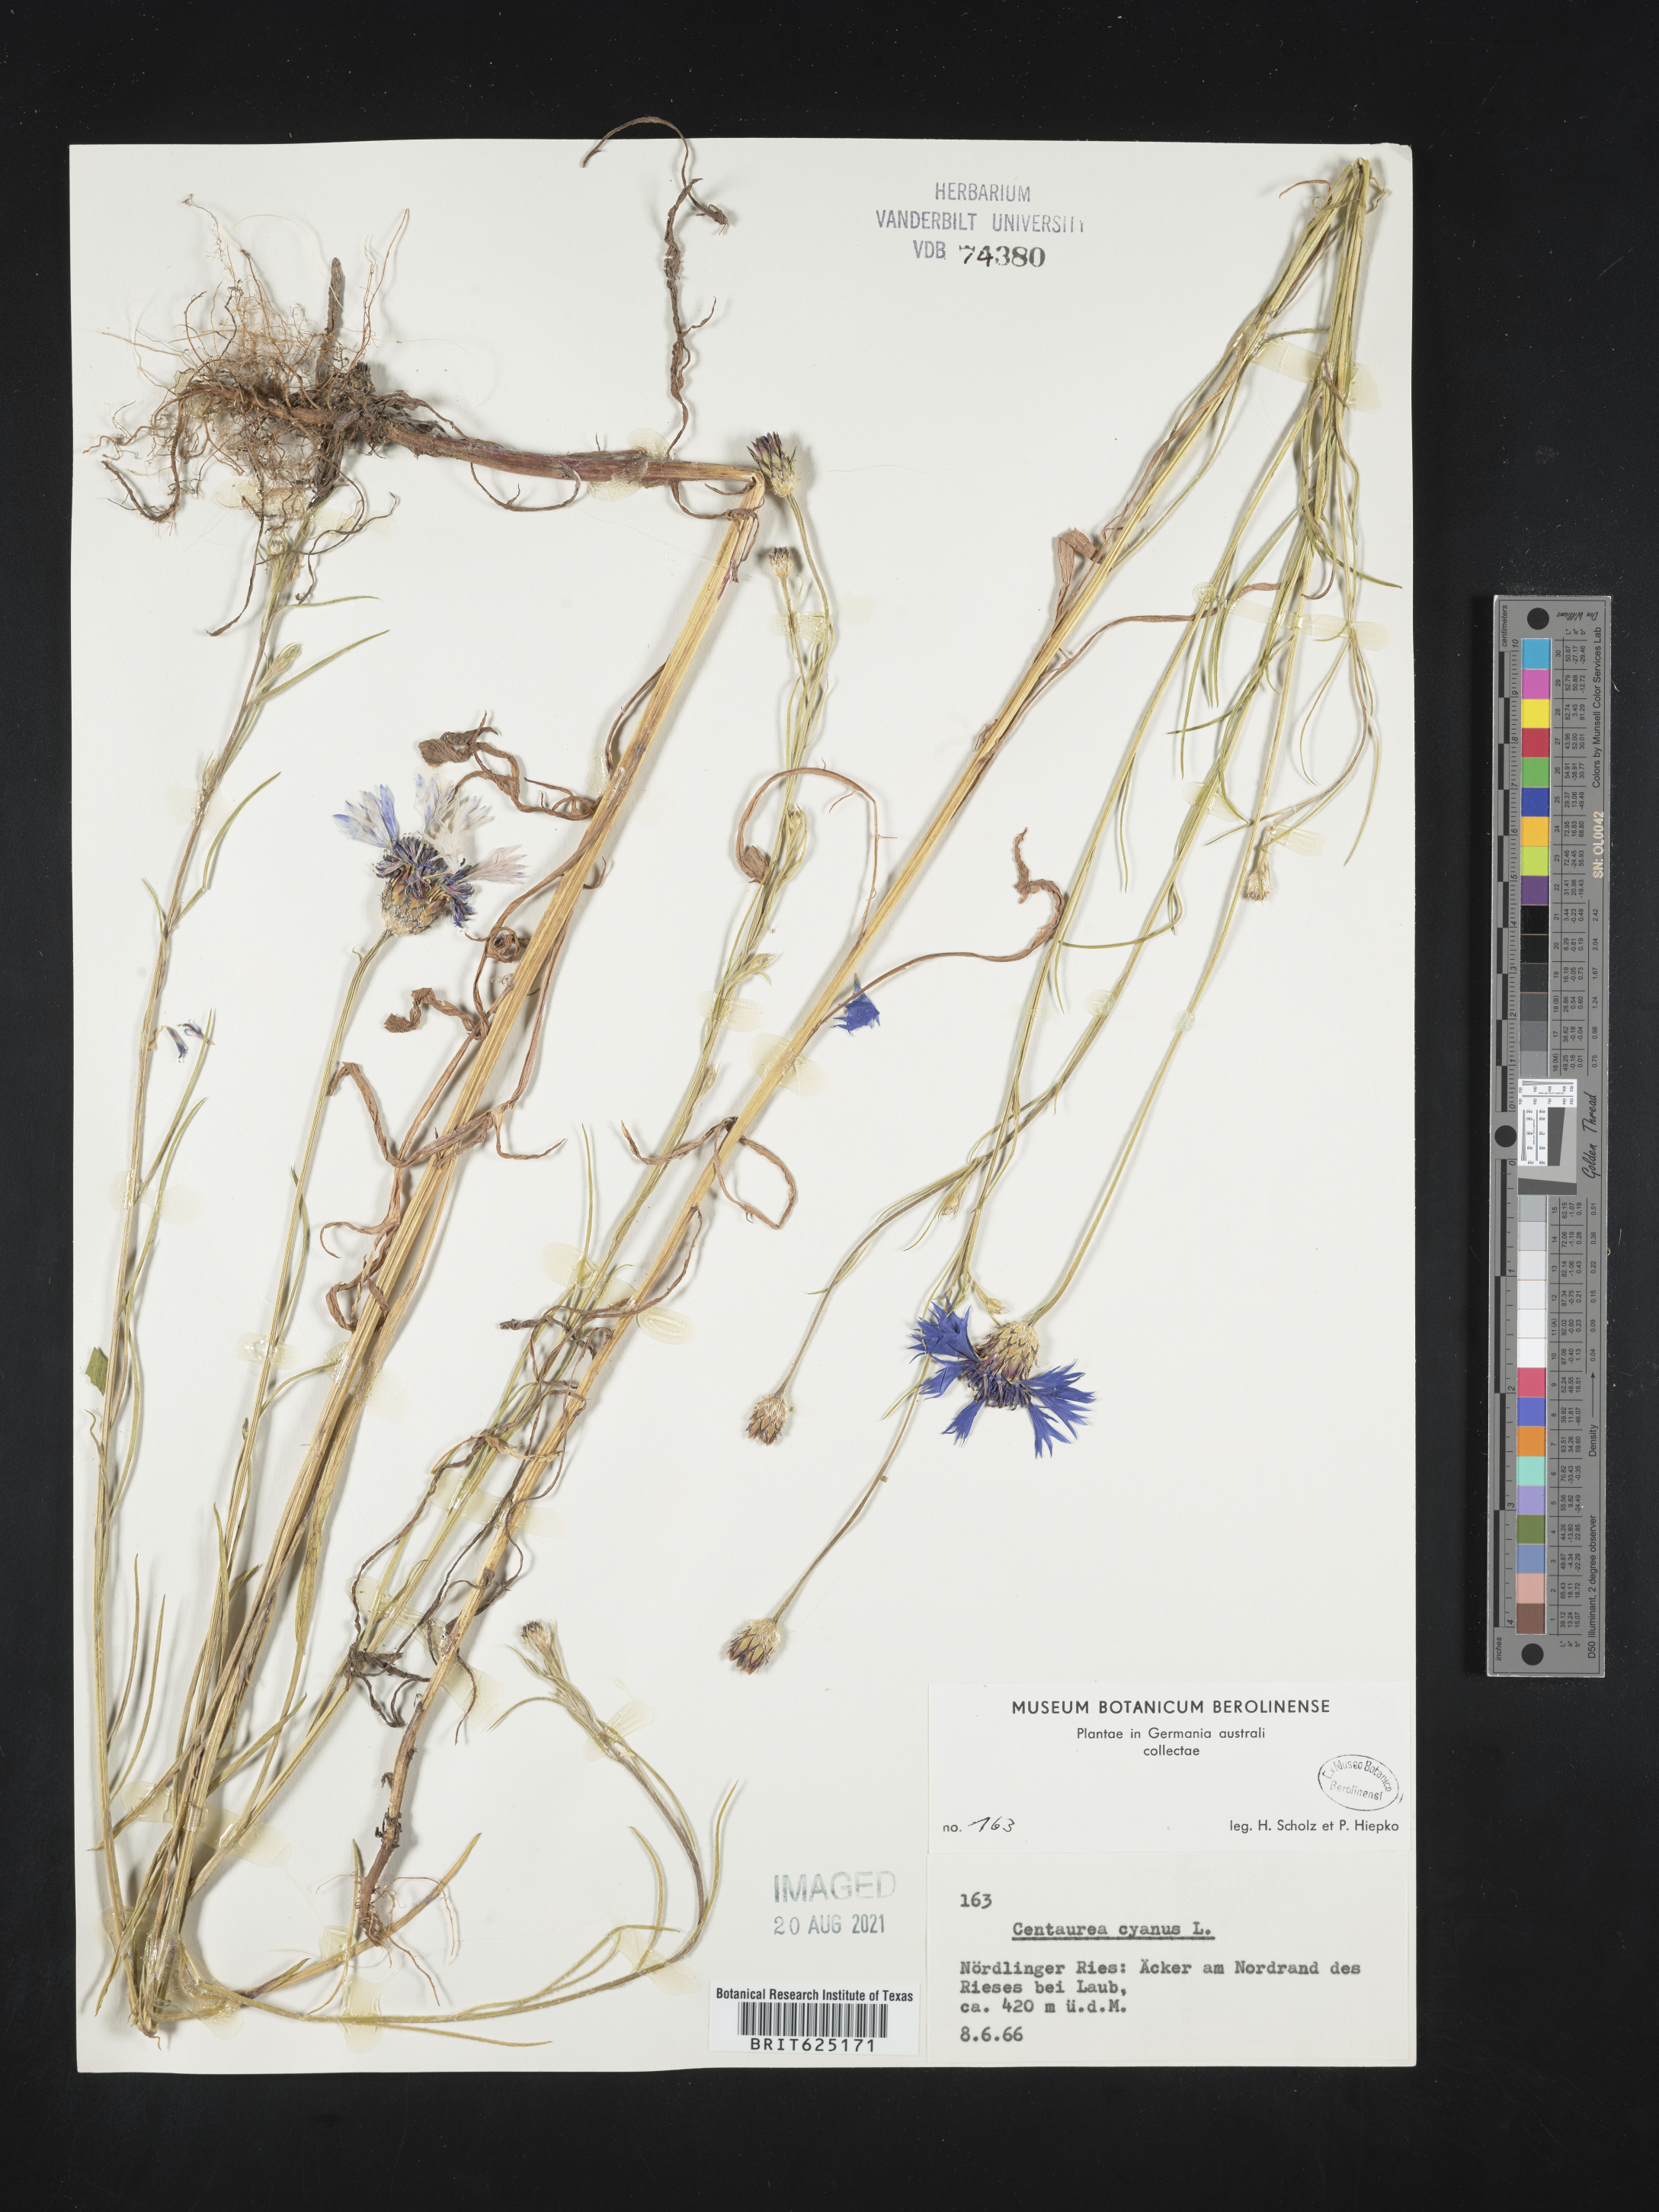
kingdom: Plantae
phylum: Tracheophyta
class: Magnoliopsida
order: Asterales
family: Asteraceae
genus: Centaurea
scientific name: Centaurea cyanus
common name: Cornflower
